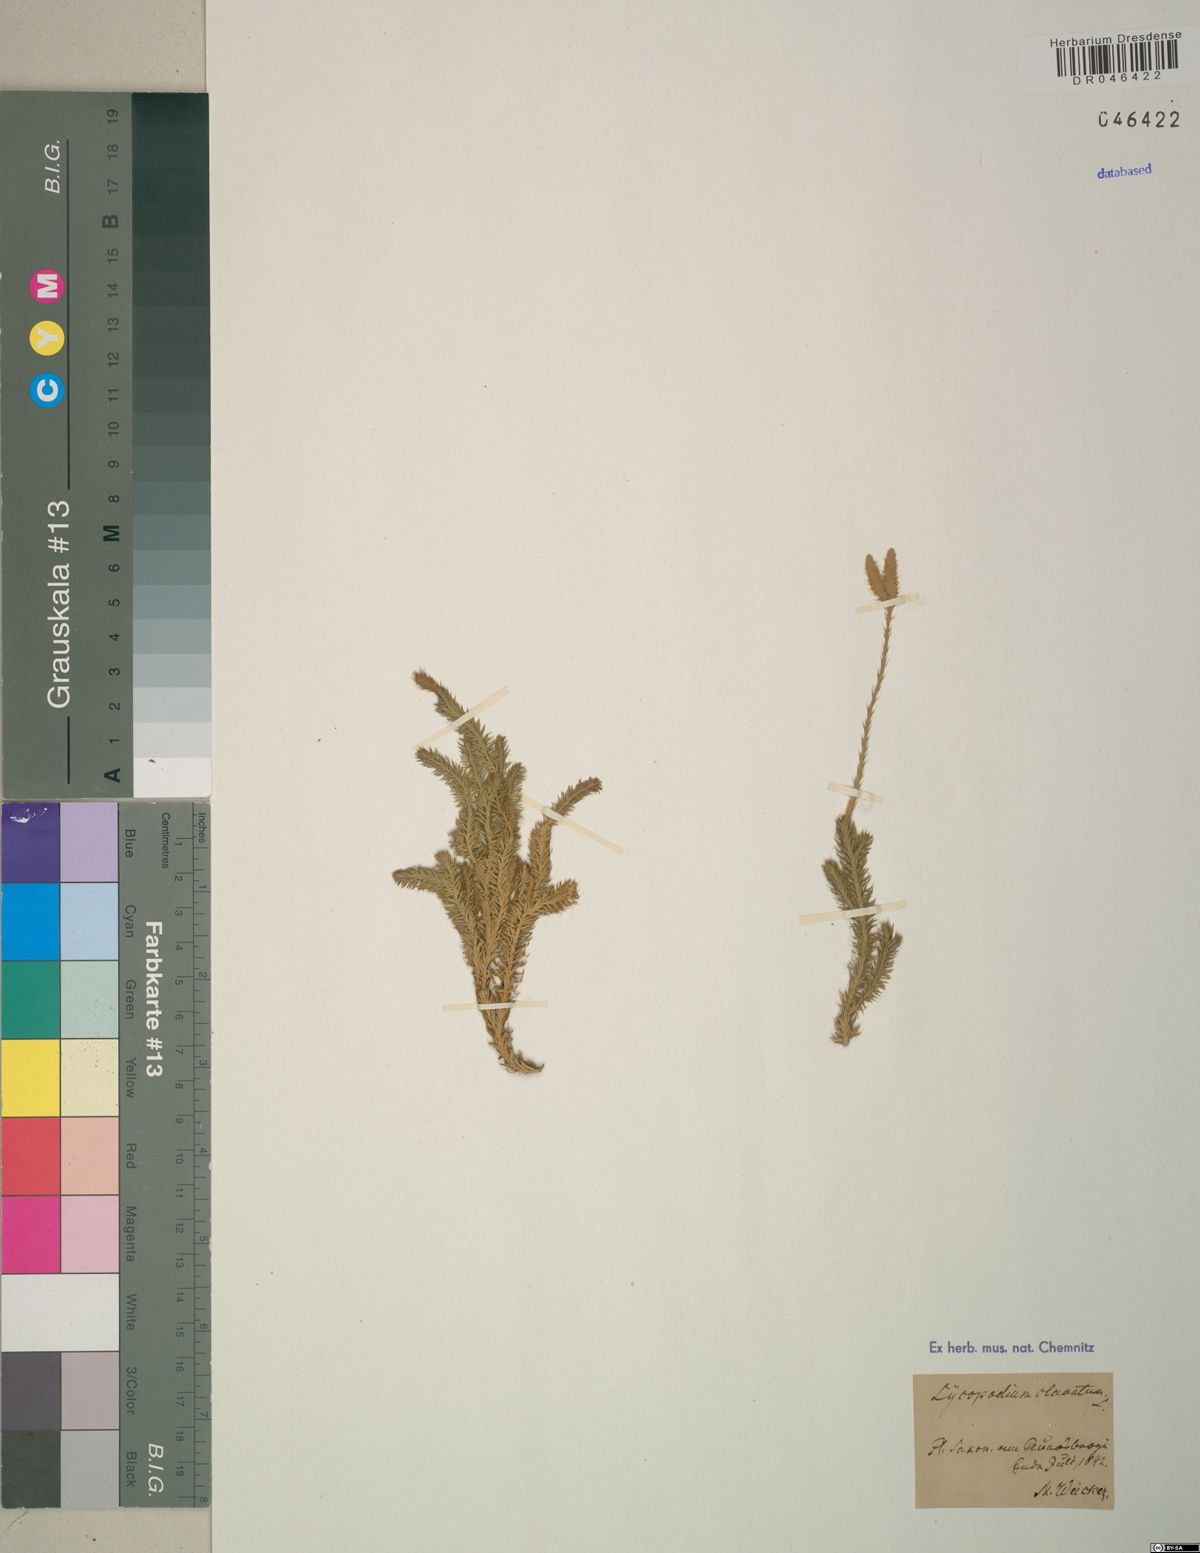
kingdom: Plantae
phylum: Tracheophyta
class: Lycopodiopsida
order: Lycopodiales
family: Lycopodiaceae
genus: Lycopodium
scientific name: Lycopodium clavatum
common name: Stag's-horn clubmoss
